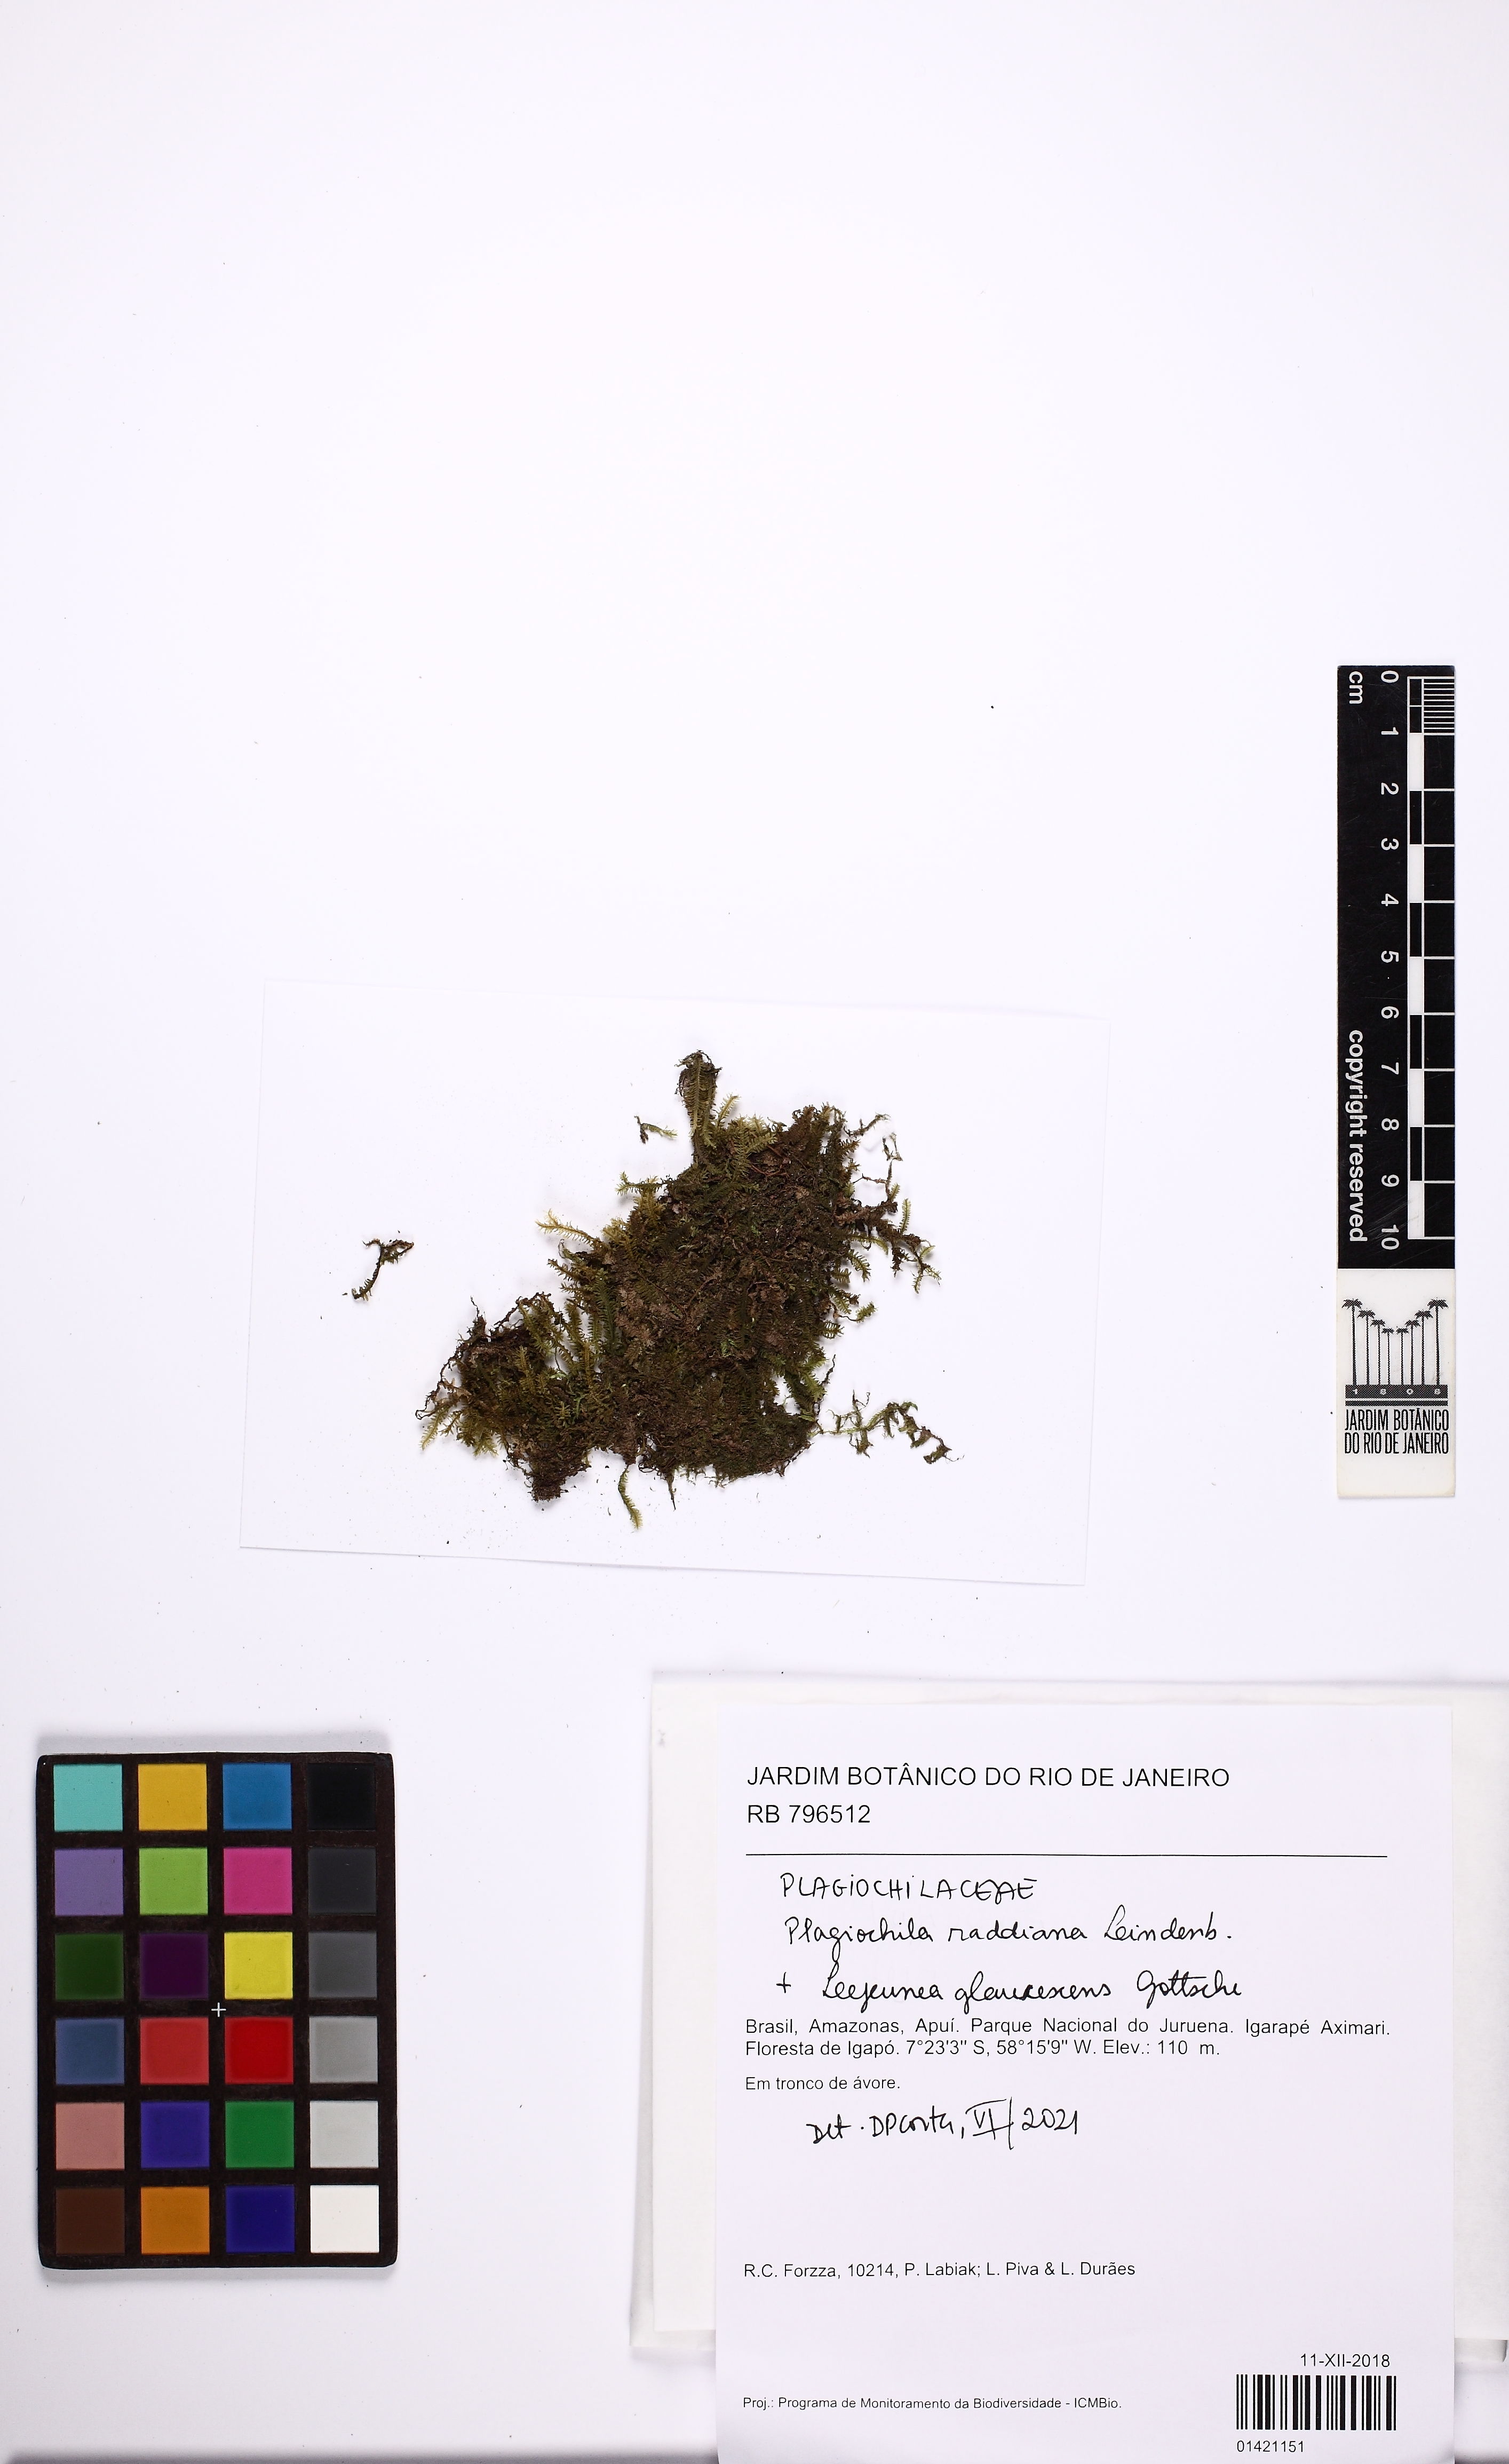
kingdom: Plantae
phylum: Marchantiophyta
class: Jungermanniopsida
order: Jungermanniales
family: Plagiochilaceae
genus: Plagiochila
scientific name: Plagiochila raddiana
